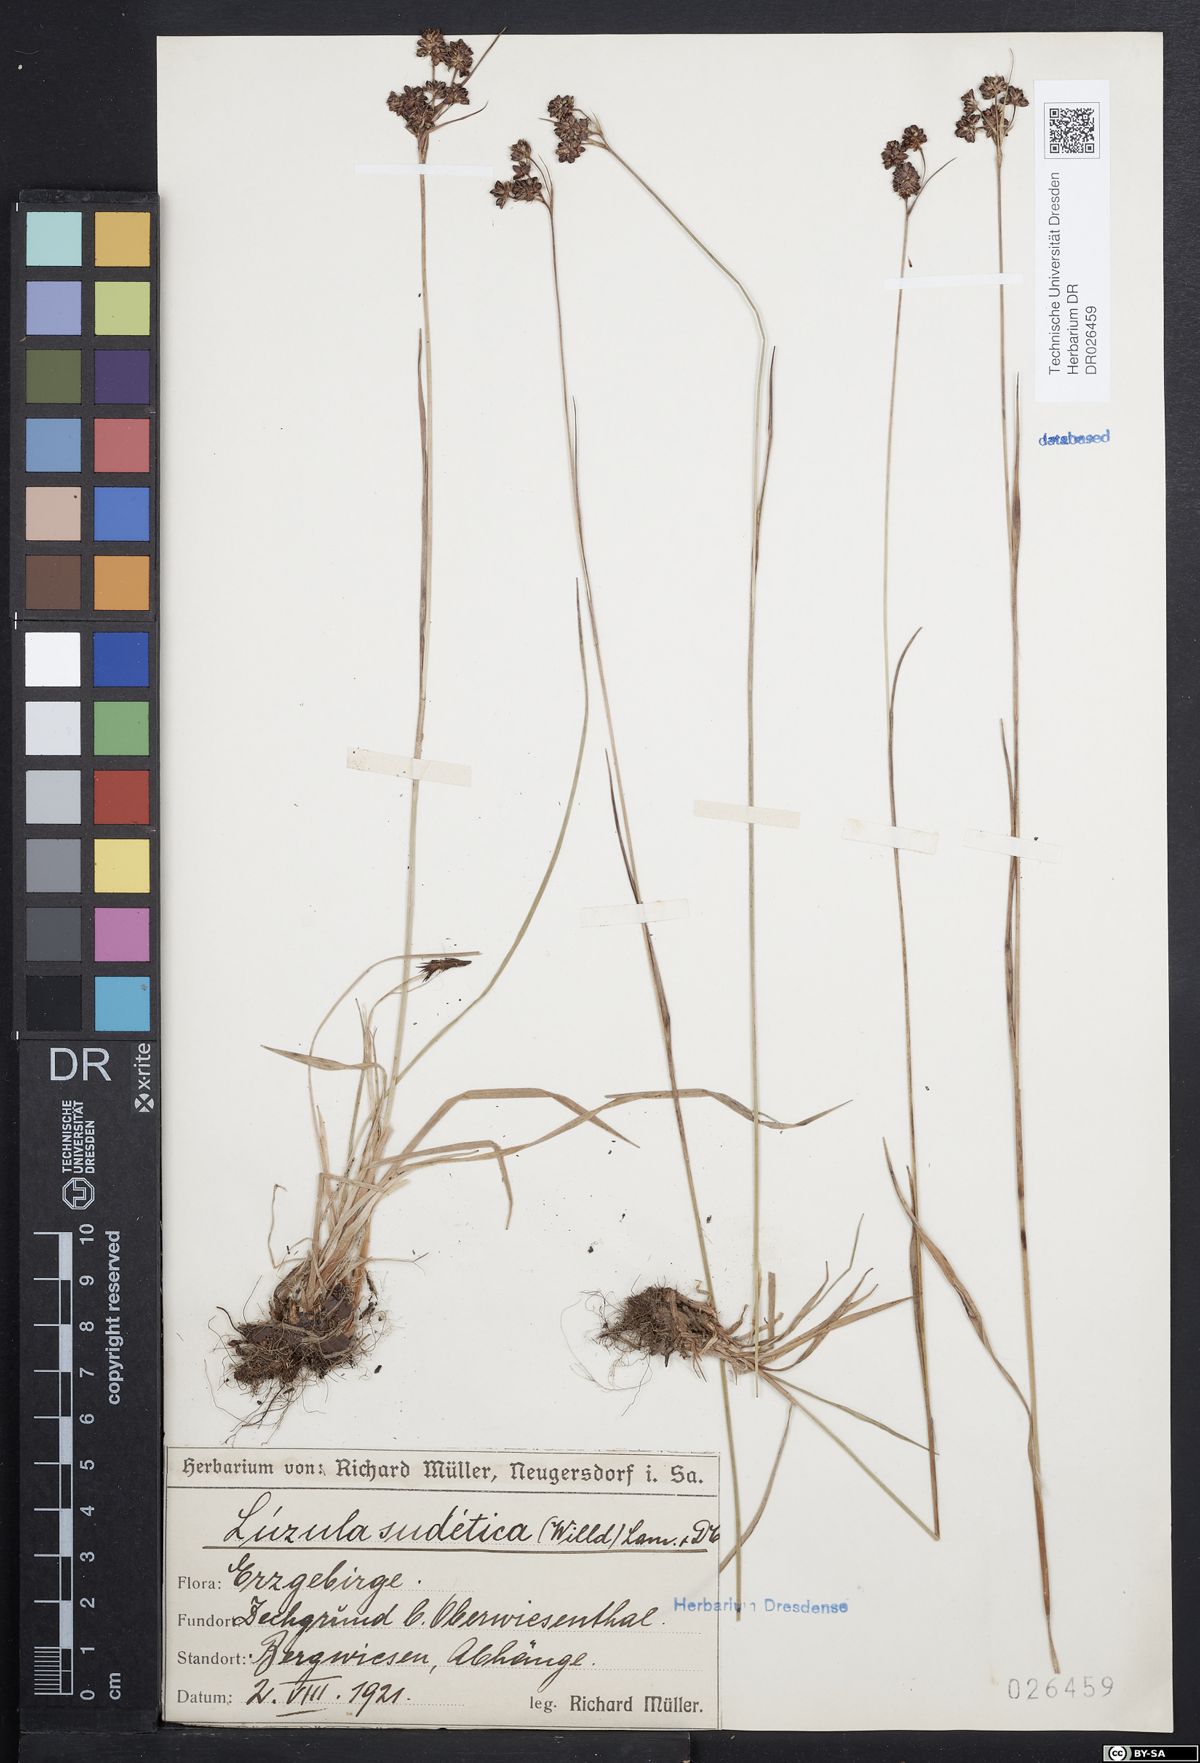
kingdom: Plantae
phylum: Tracheophyta
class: Liliopsida
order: Poales
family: Juncaceae
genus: Luzula
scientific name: Luzula sudetica
